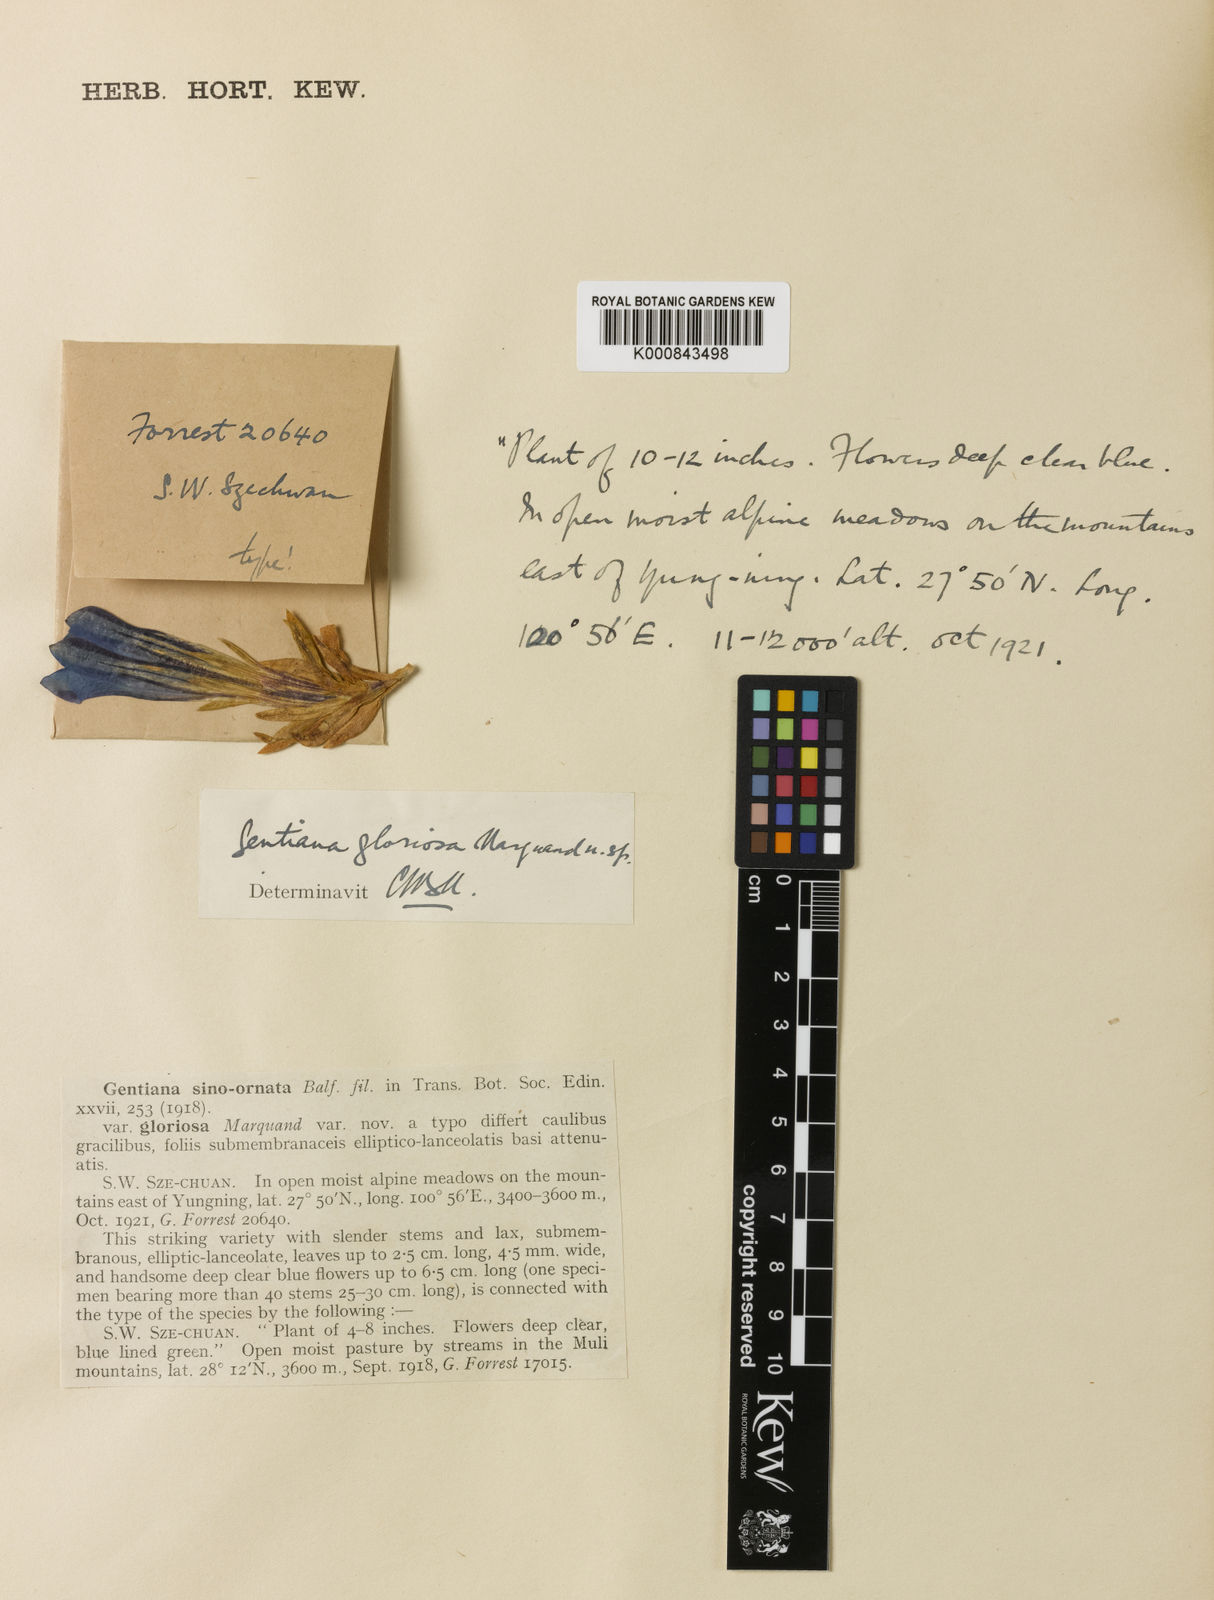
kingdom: Plantae
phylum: Tracheophyta
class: Magnoliopsida
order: Gentianales
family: Gentianaceae
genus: Gentiana
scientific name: Gentiana
